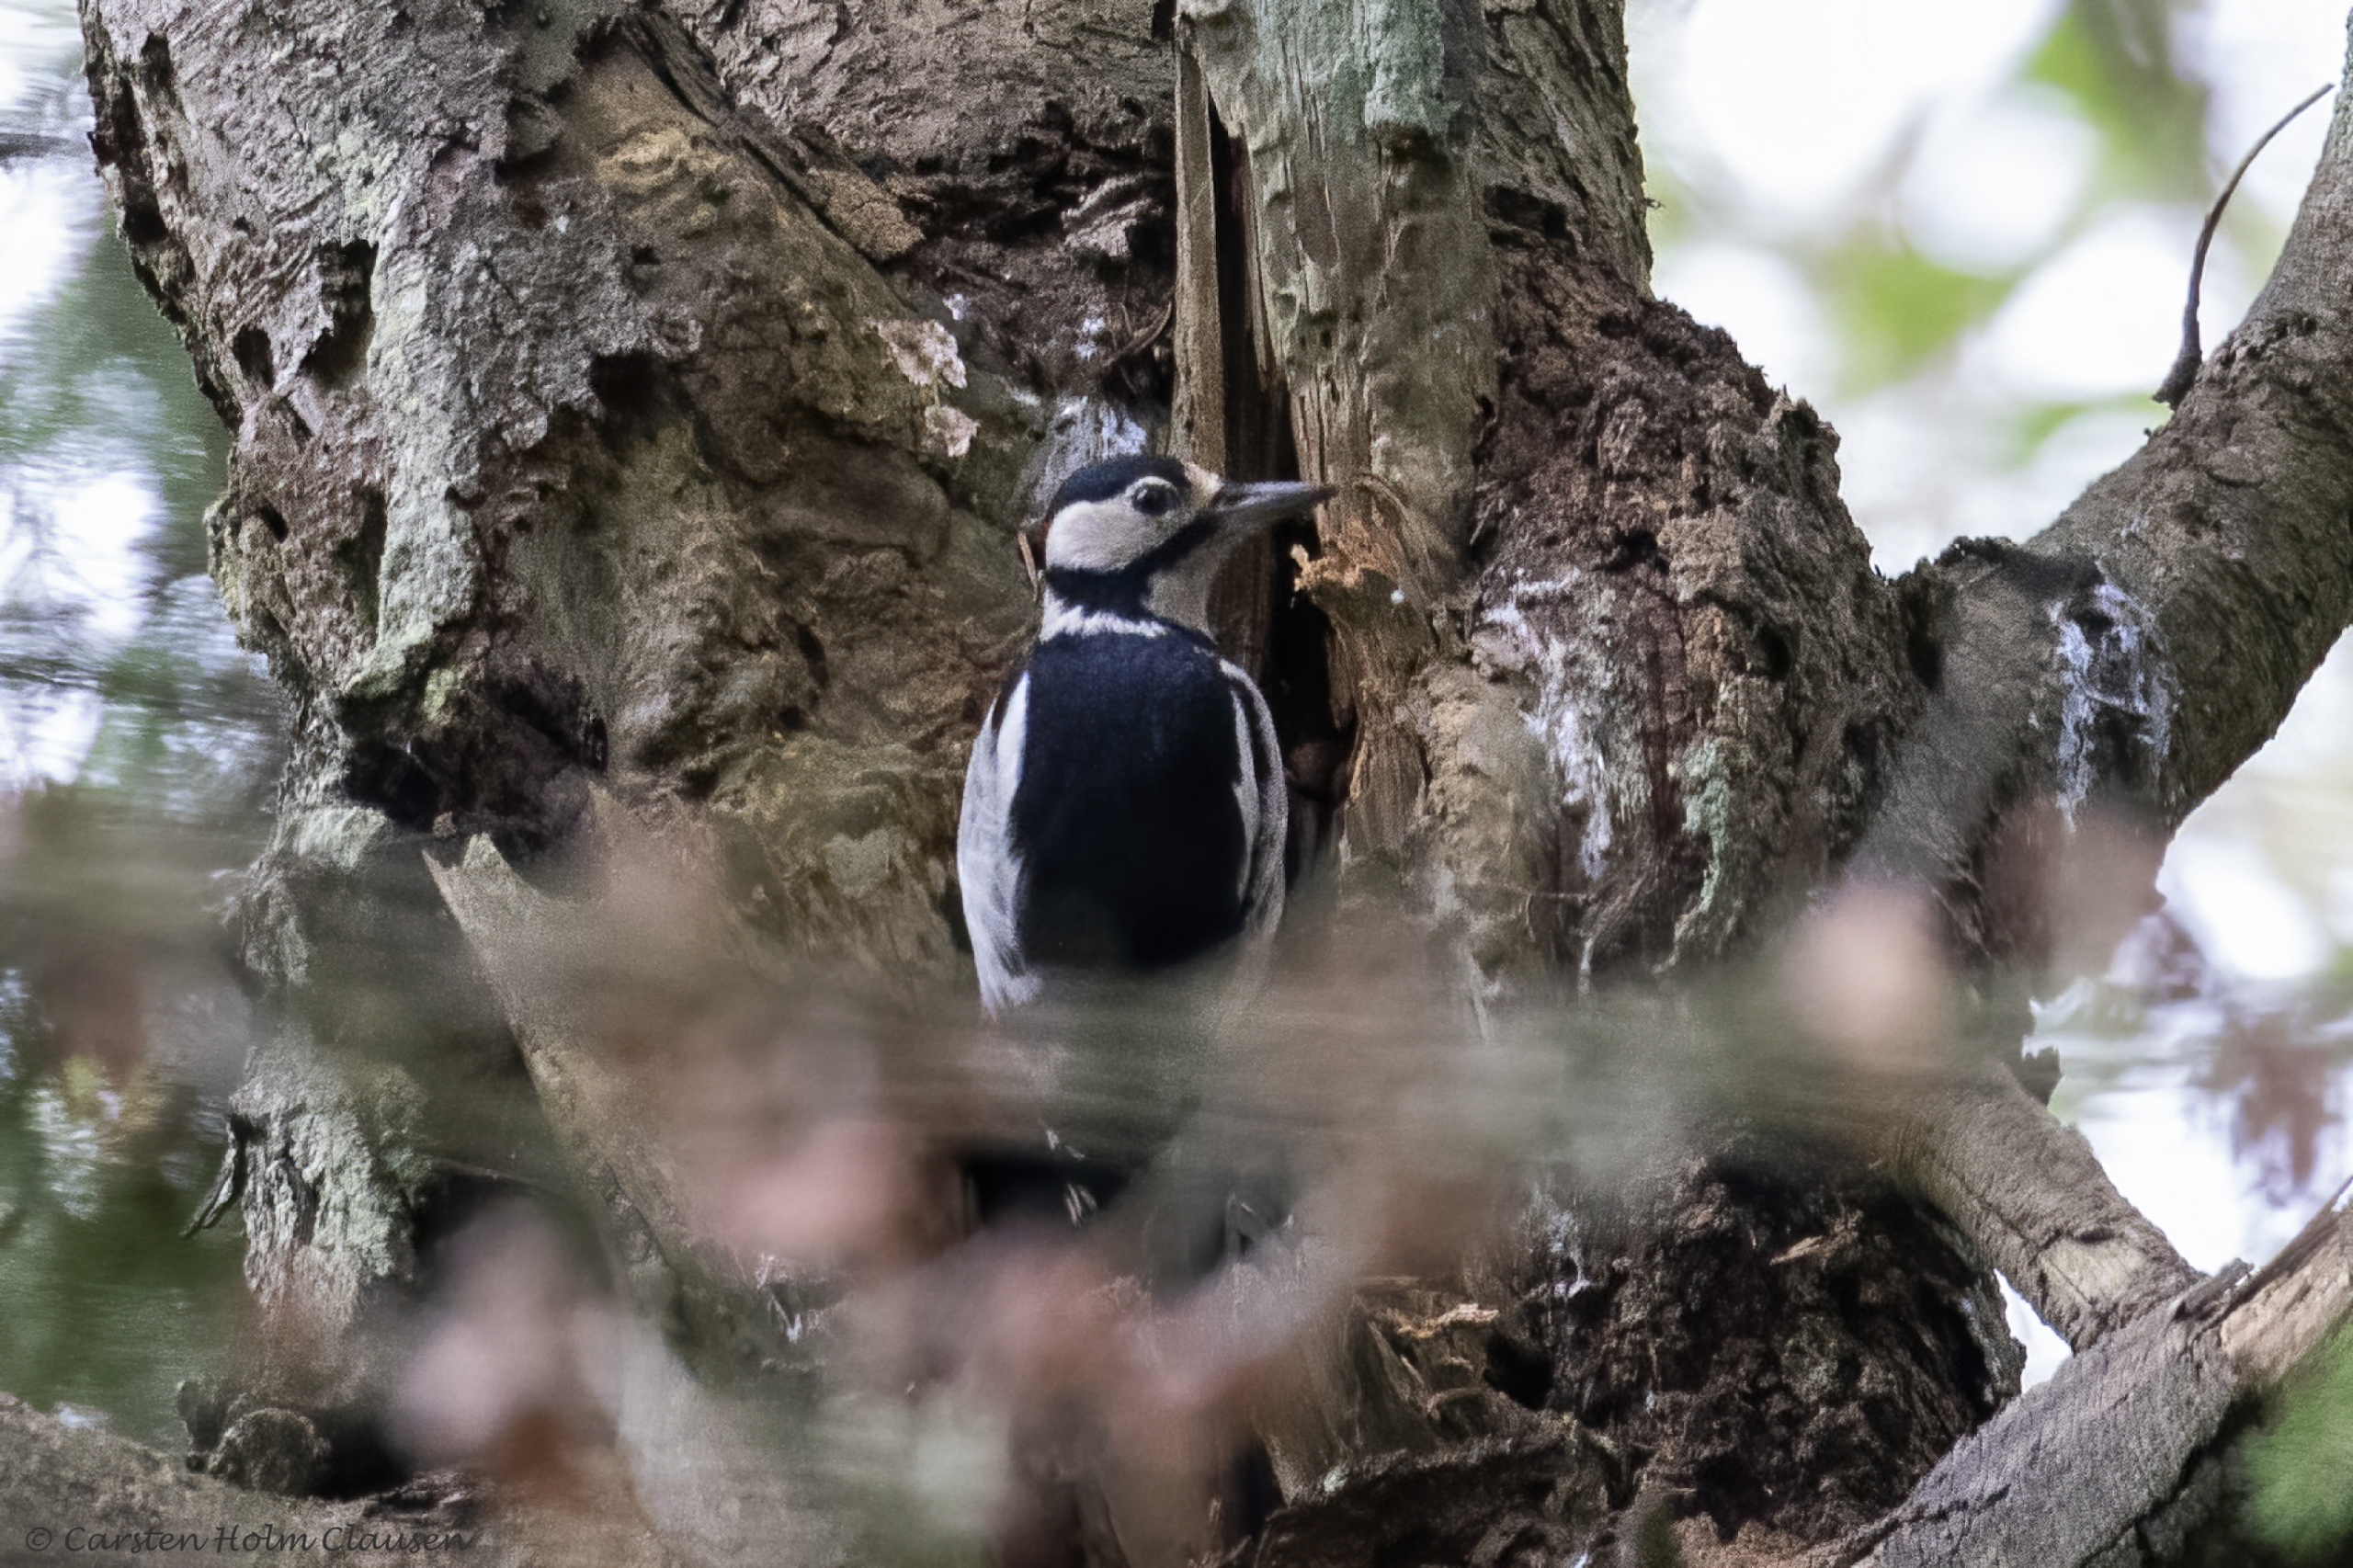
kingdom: Animalia
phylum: Chordata
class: Aves
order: Piciformes
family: Picidae
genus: Dendrocopos
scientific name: Dendrocopos major
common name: Stor flagspætte
